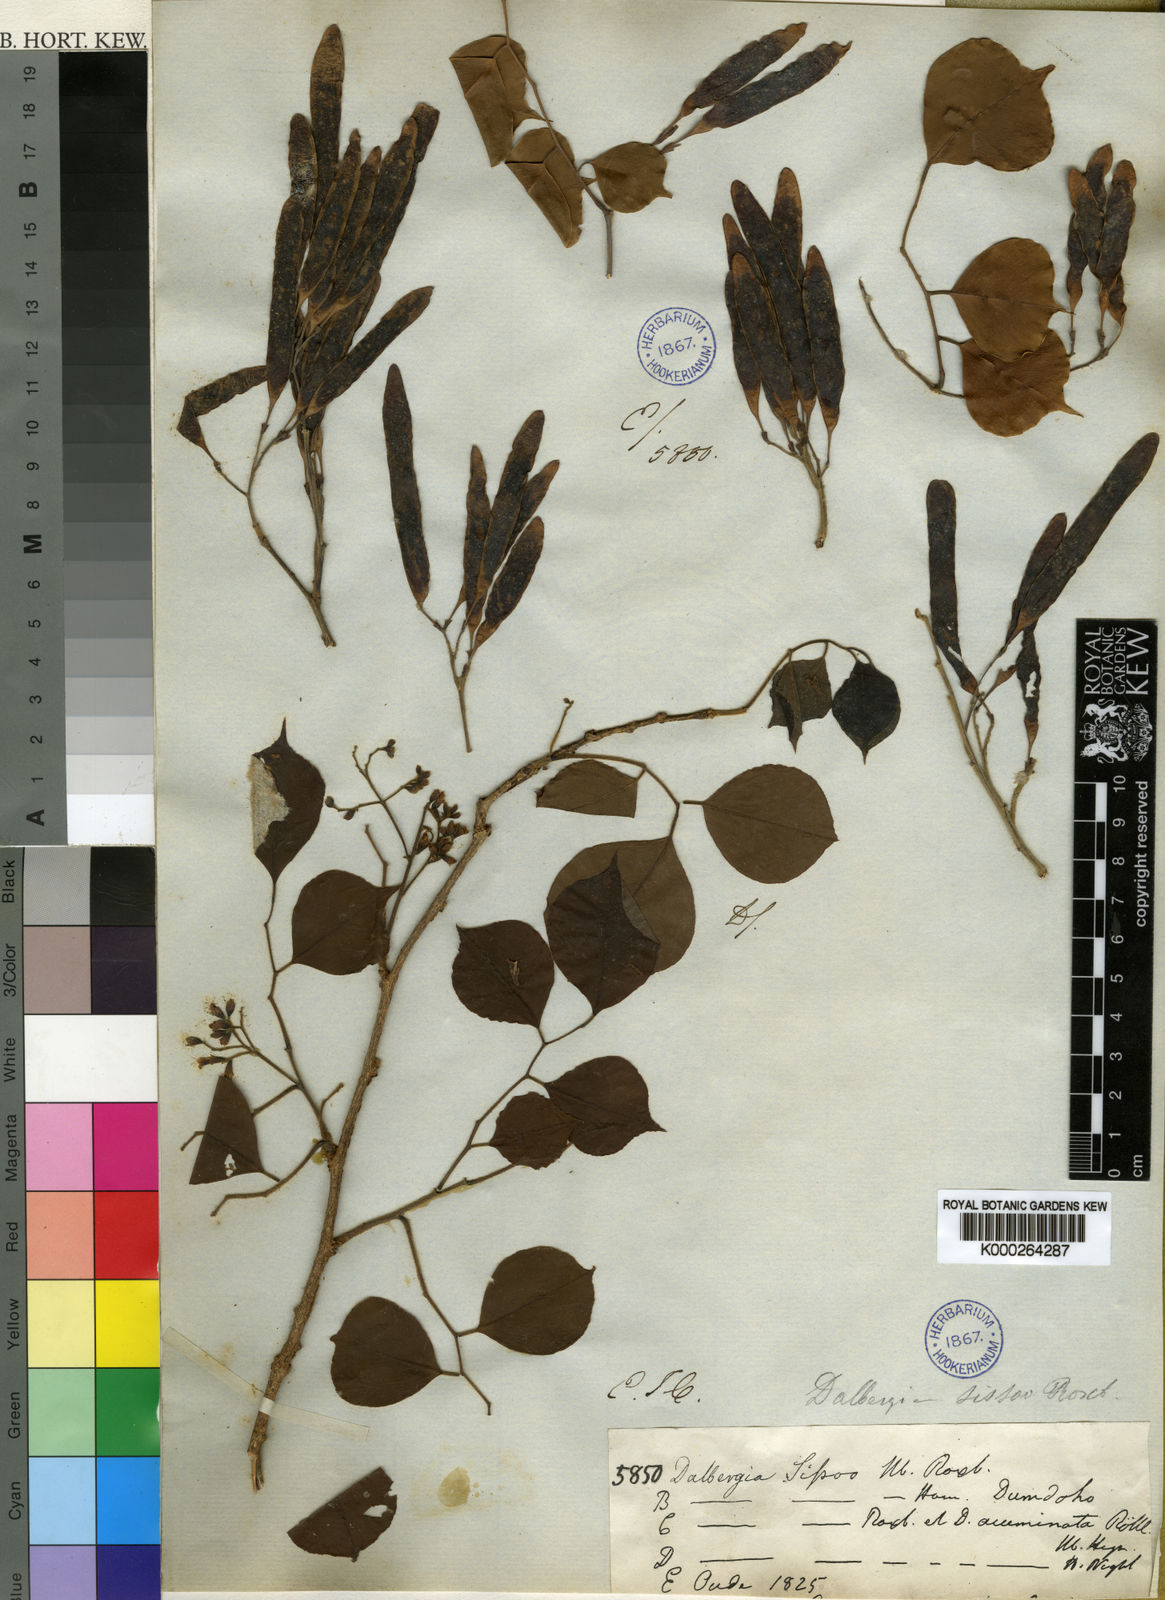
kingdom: Plantae
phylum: Tracheophyta
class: Magnoliopsida
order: Fabales
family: Fabaceae
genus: Dalbergia
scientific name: Dalbergia
